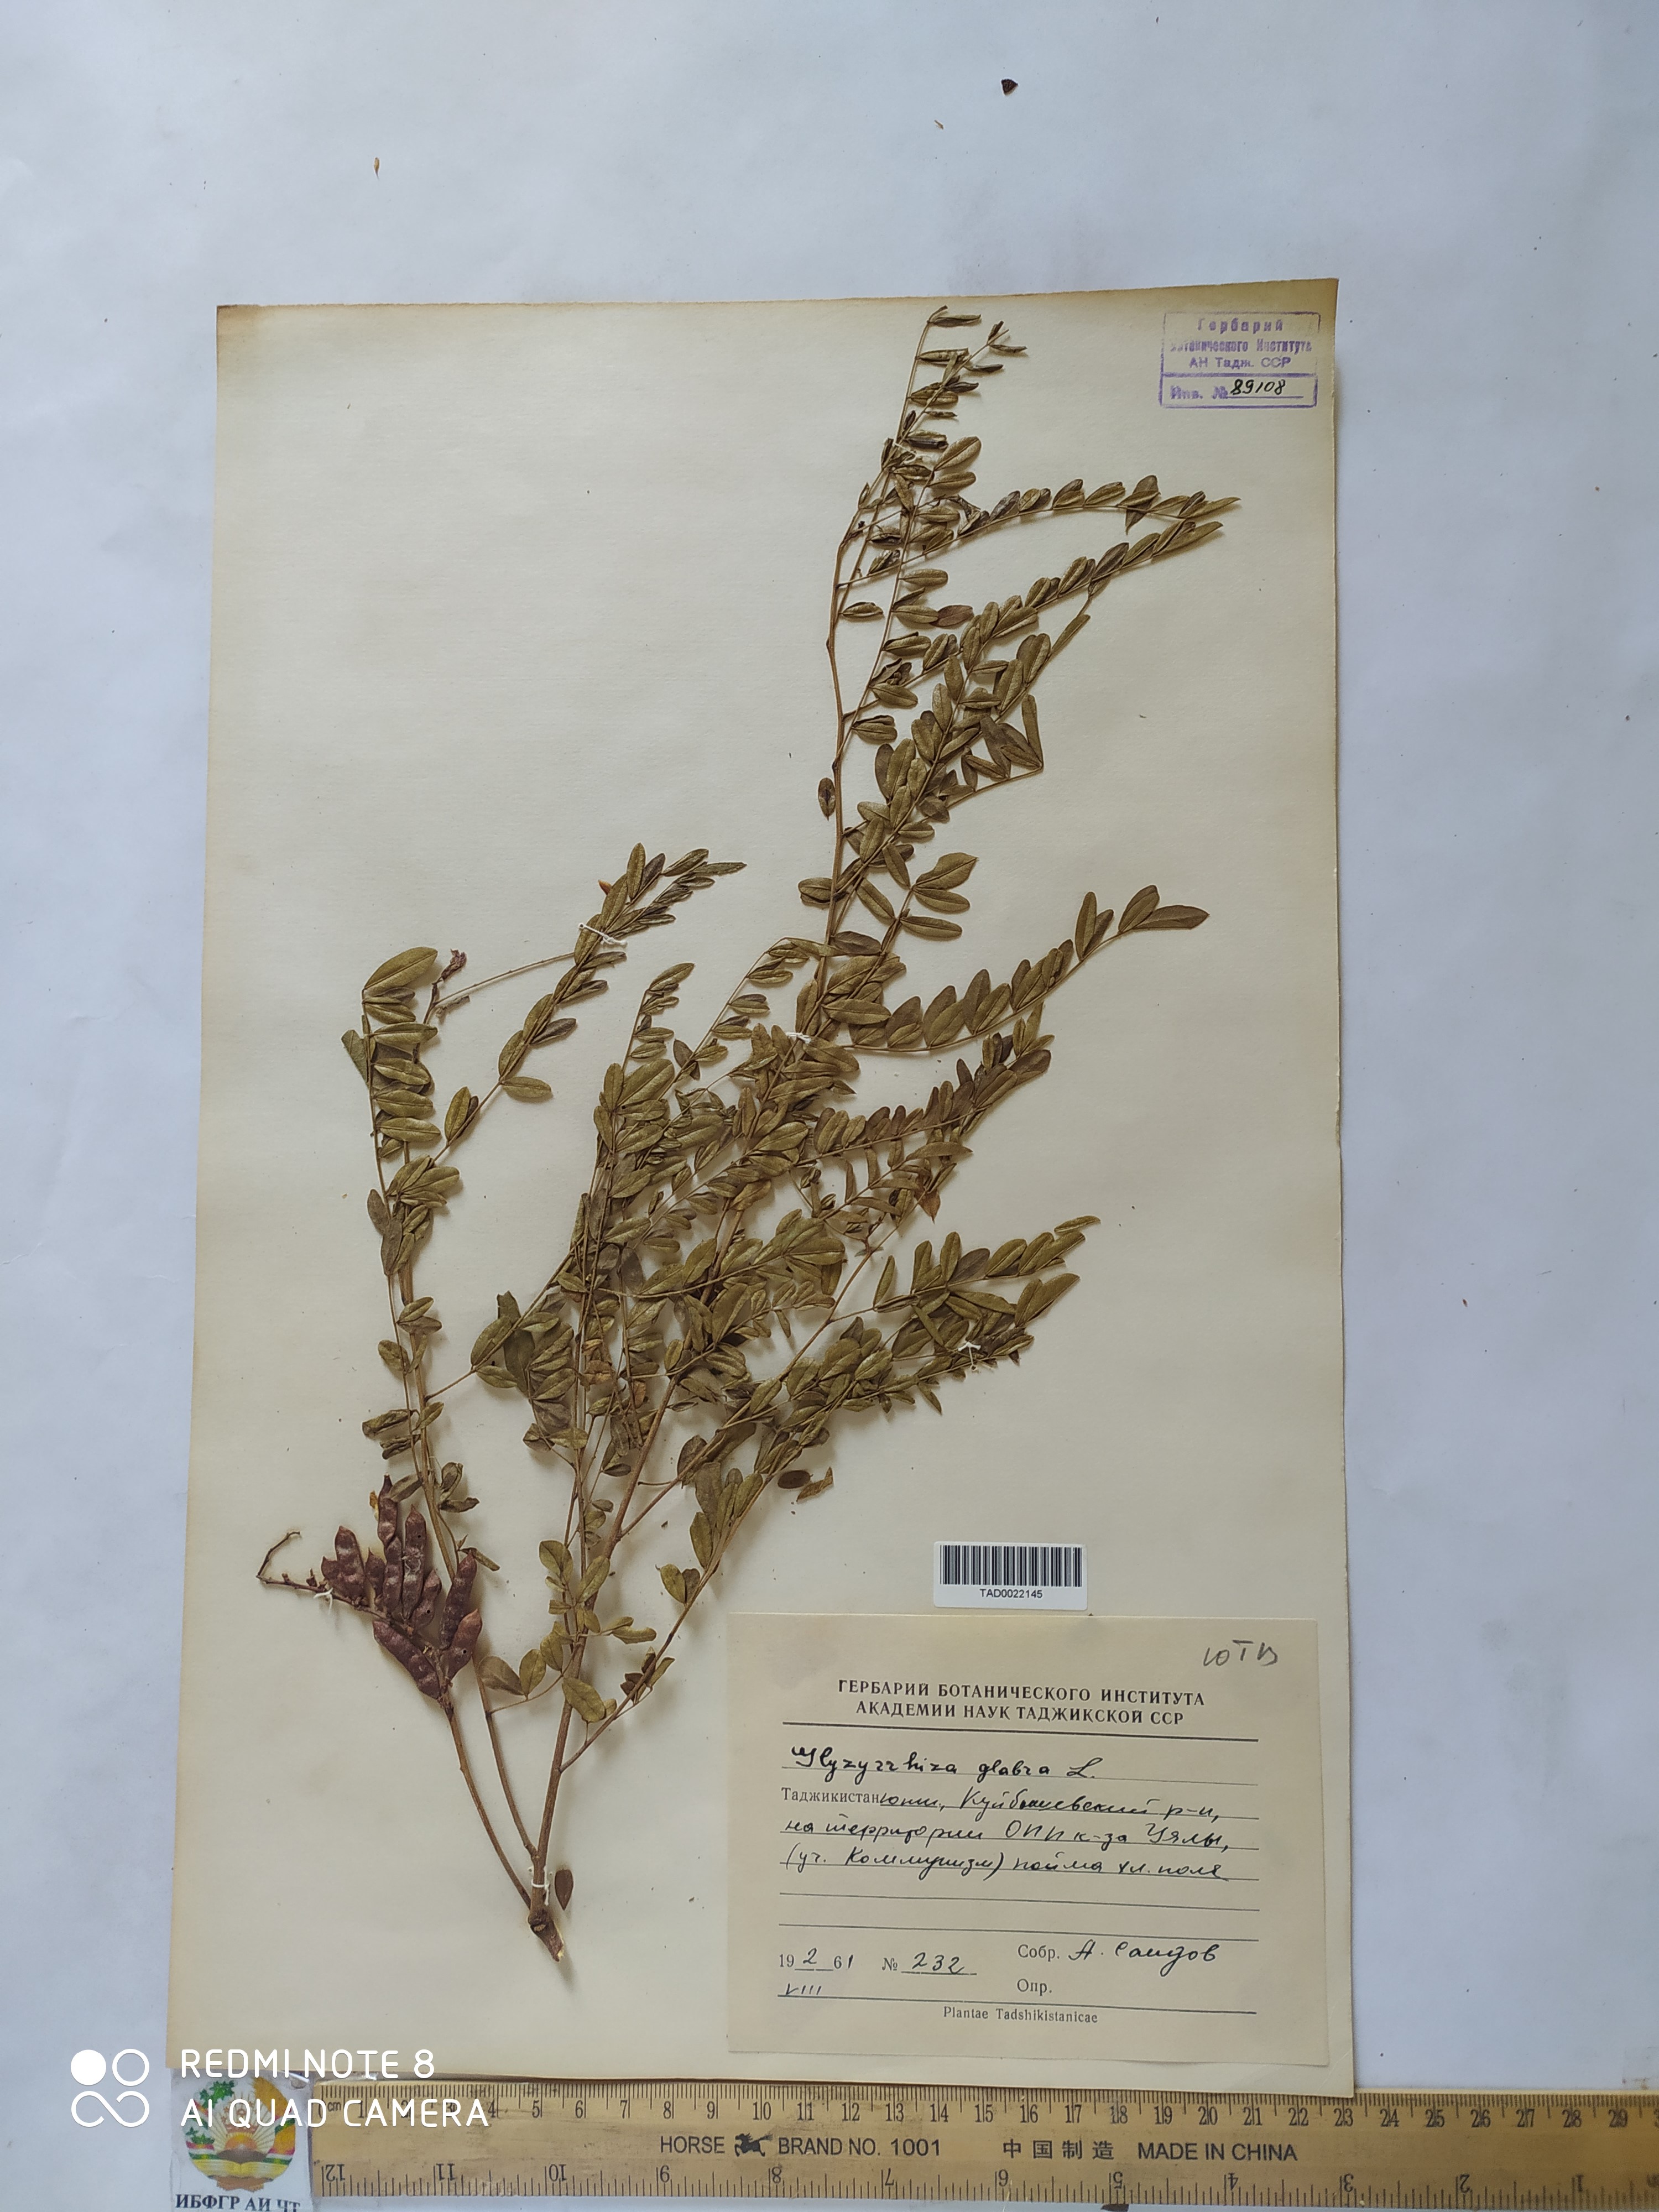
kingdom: Plantae
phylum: Tracheophyta
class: Magnoliopsida
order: Fabales
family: Fabaceae
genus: Glycyrrhiza
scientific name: Glycyrrhiza glabra
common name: Liquorice
